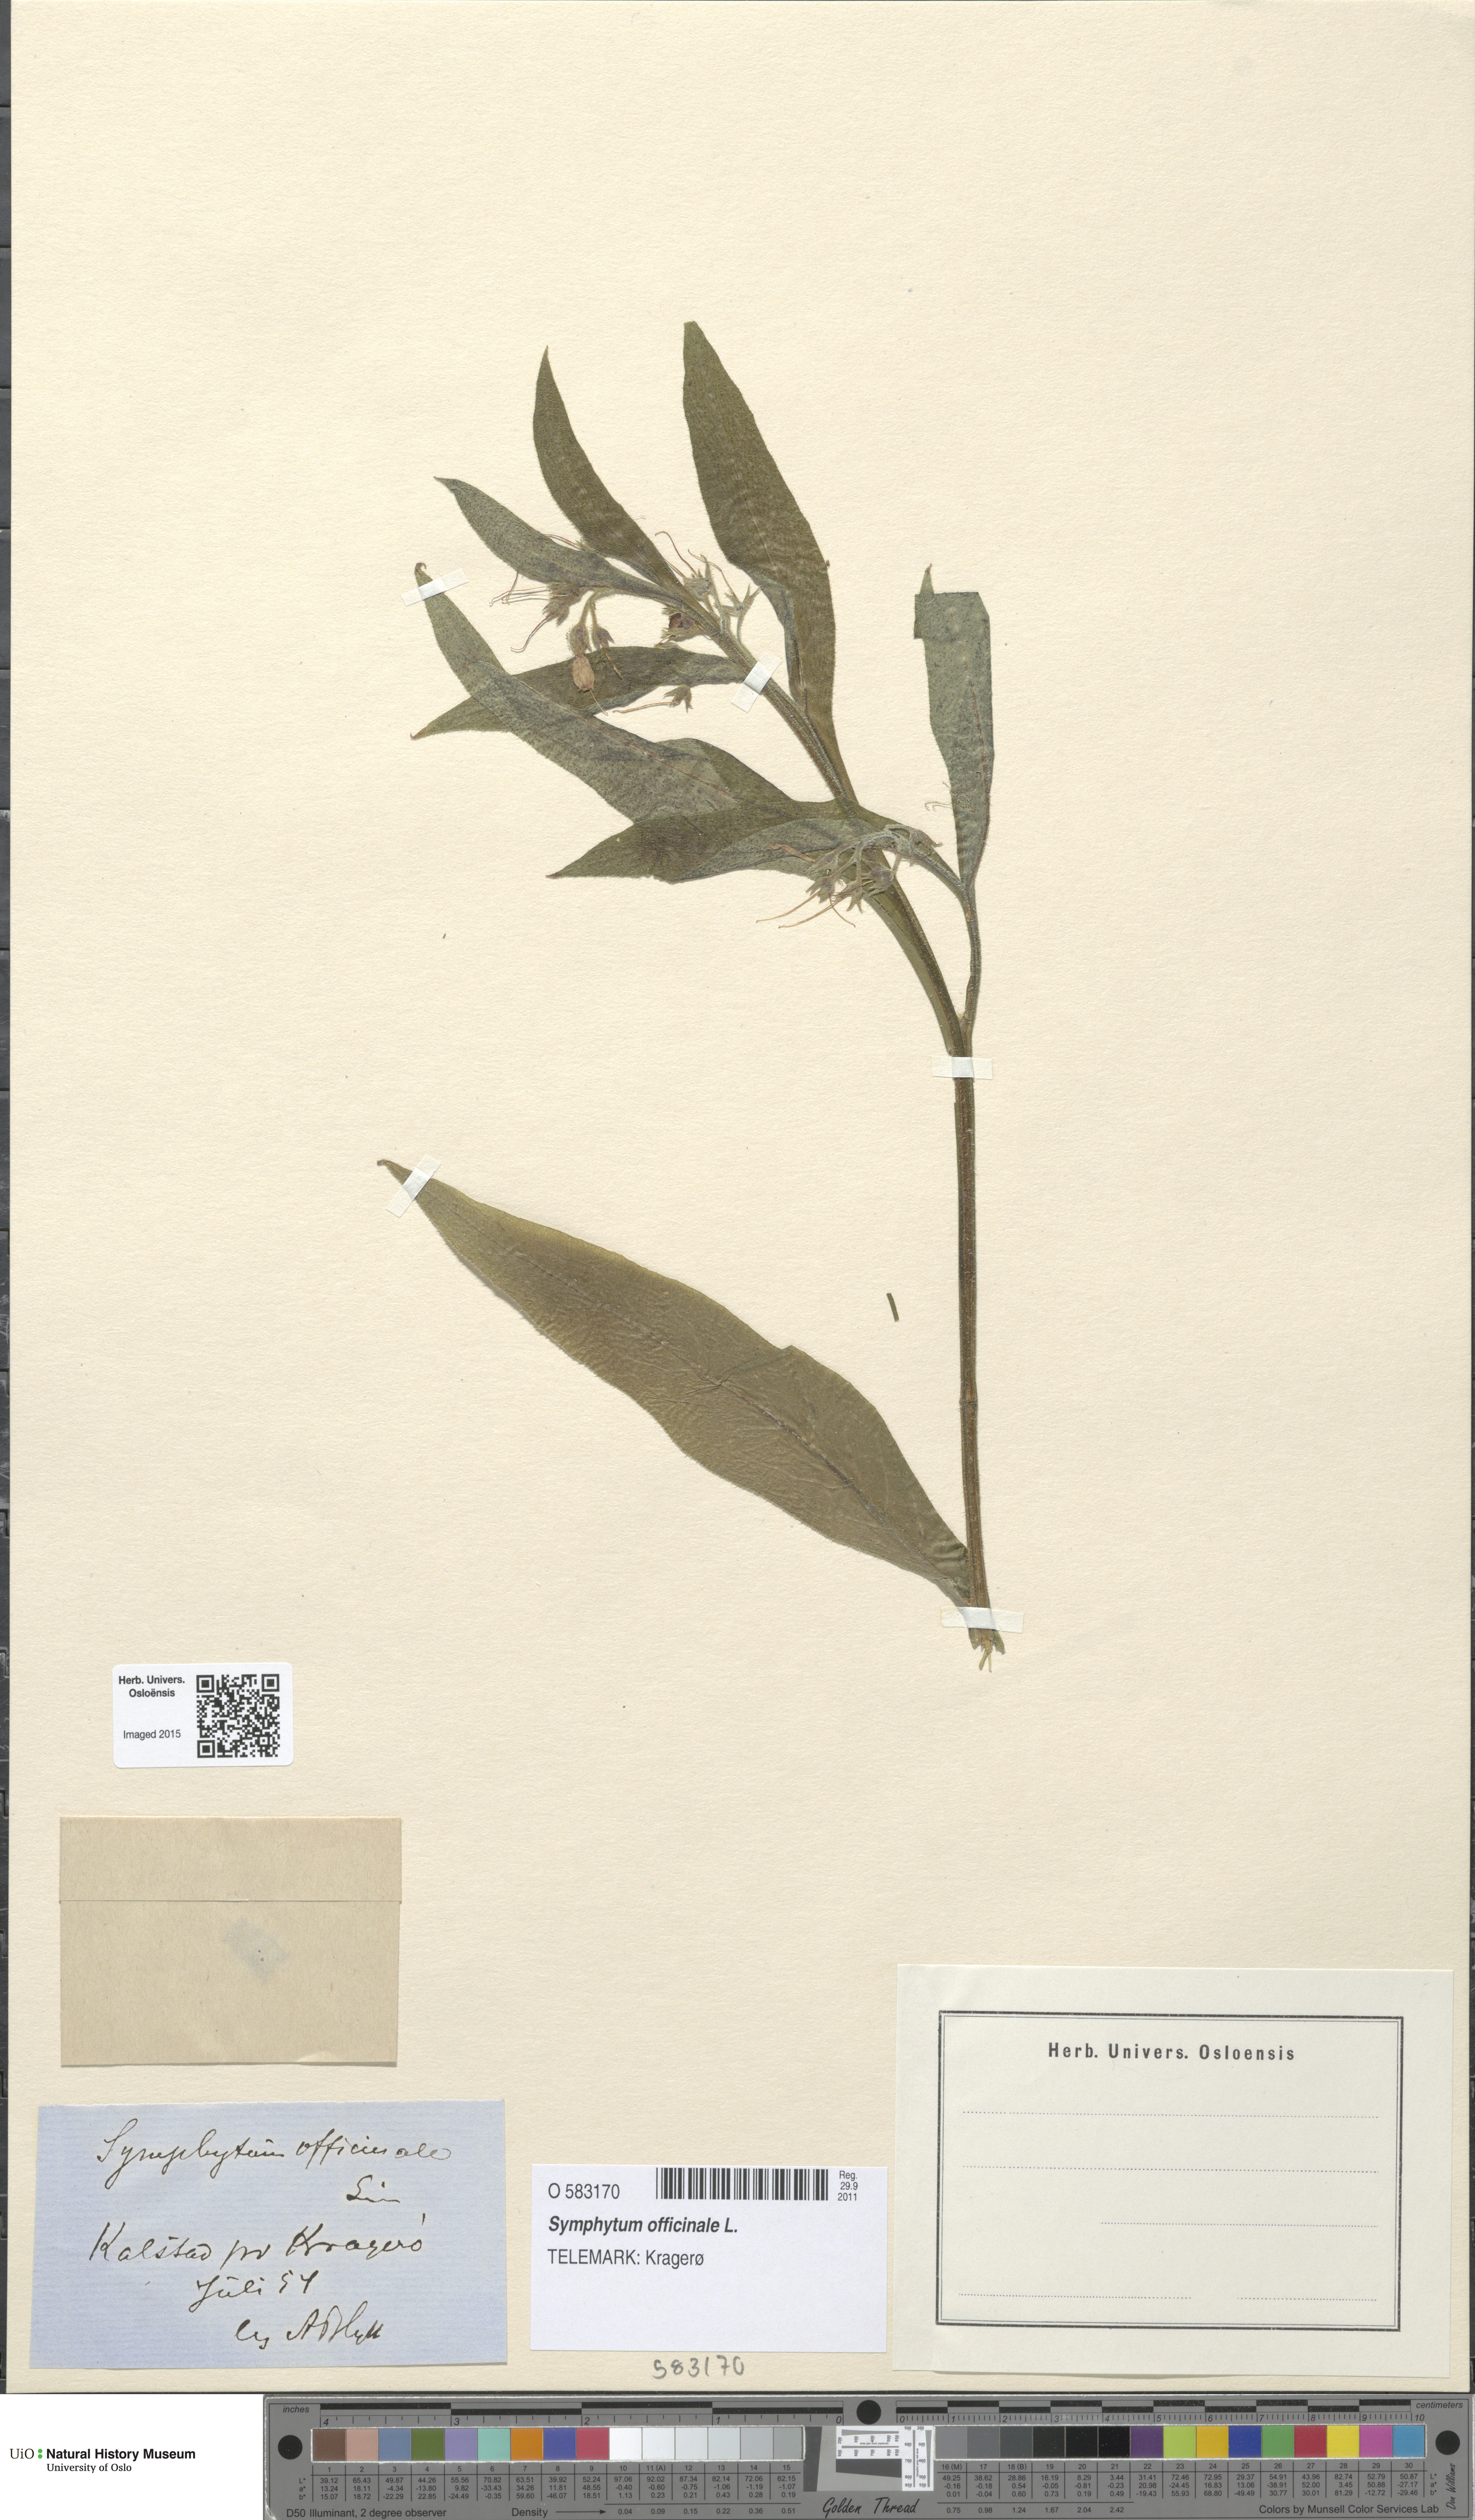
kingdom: Plantae
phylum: Tracheophyta
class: Magnoliopsida
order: Boraginales
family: Boraginaceae
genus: Symphytum
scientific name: Symphytum officinale
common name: Common comfrey
